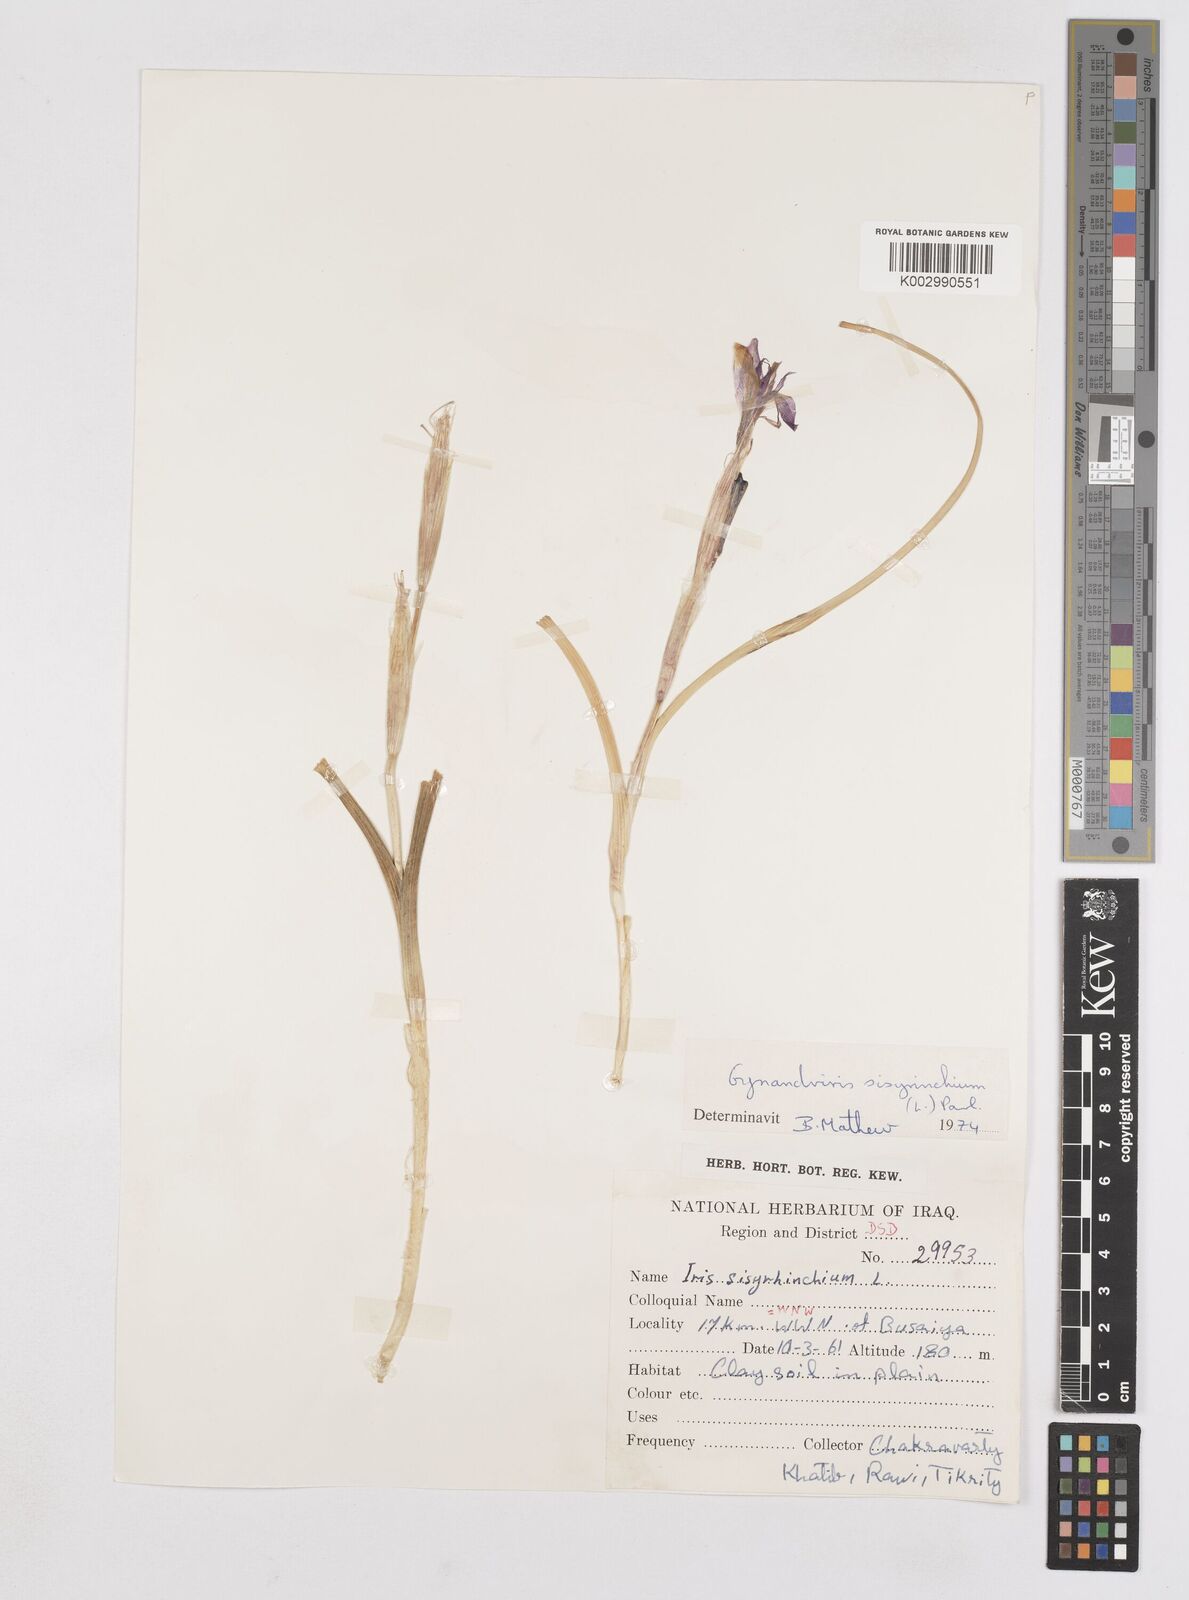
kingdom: Plantae
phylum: Tracheophyta
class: Liliopsida
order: Asparagales
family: Iridaceae
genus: Moraea
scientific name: Moraea sisyrinchium
